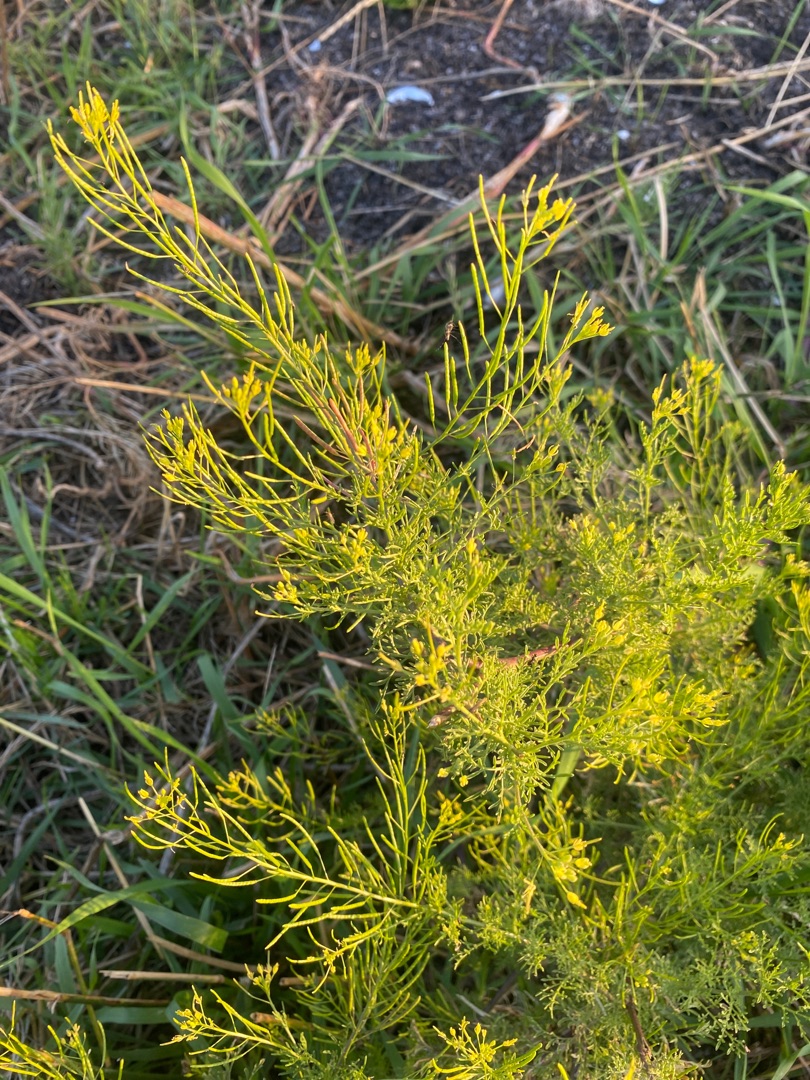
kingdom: Plantae
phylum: Tracheophyta
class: Magnoliopsida
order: Brassicales
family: Brassicaceae
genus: Descurainia
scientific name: Descurainia sophia
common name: Finbladet vejsennep
